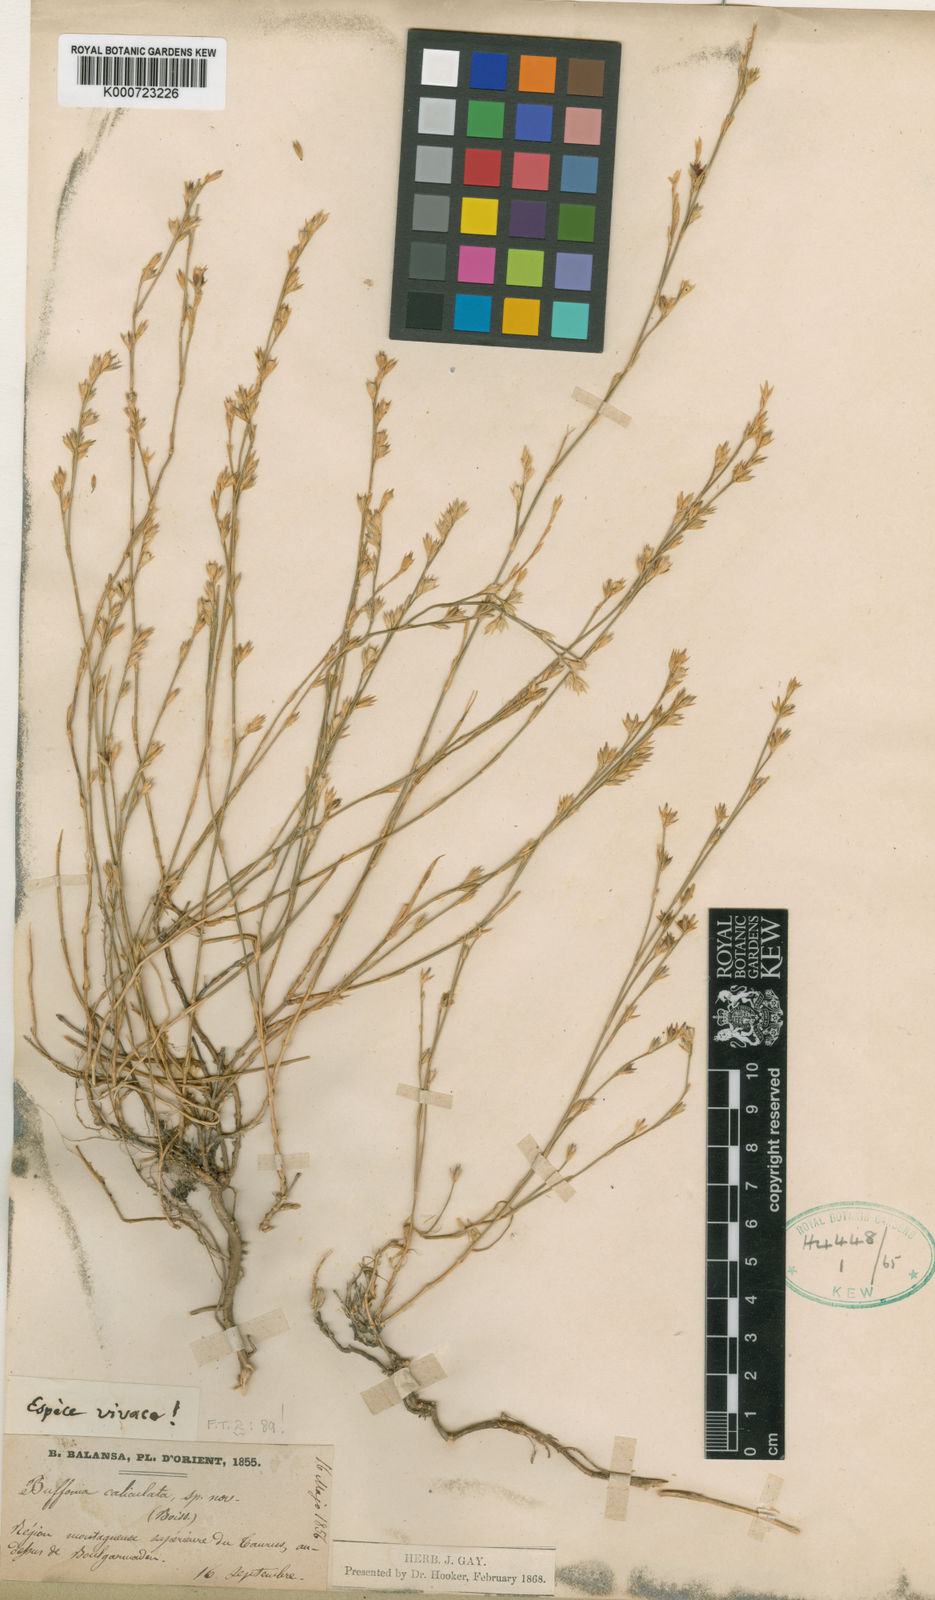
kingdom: Plantae
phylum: Tracheophyta
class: Magnoliopsida
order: Caryophyllales
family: Caryophyllaceae
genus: Bufonia
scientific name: Bufonia calyculata
